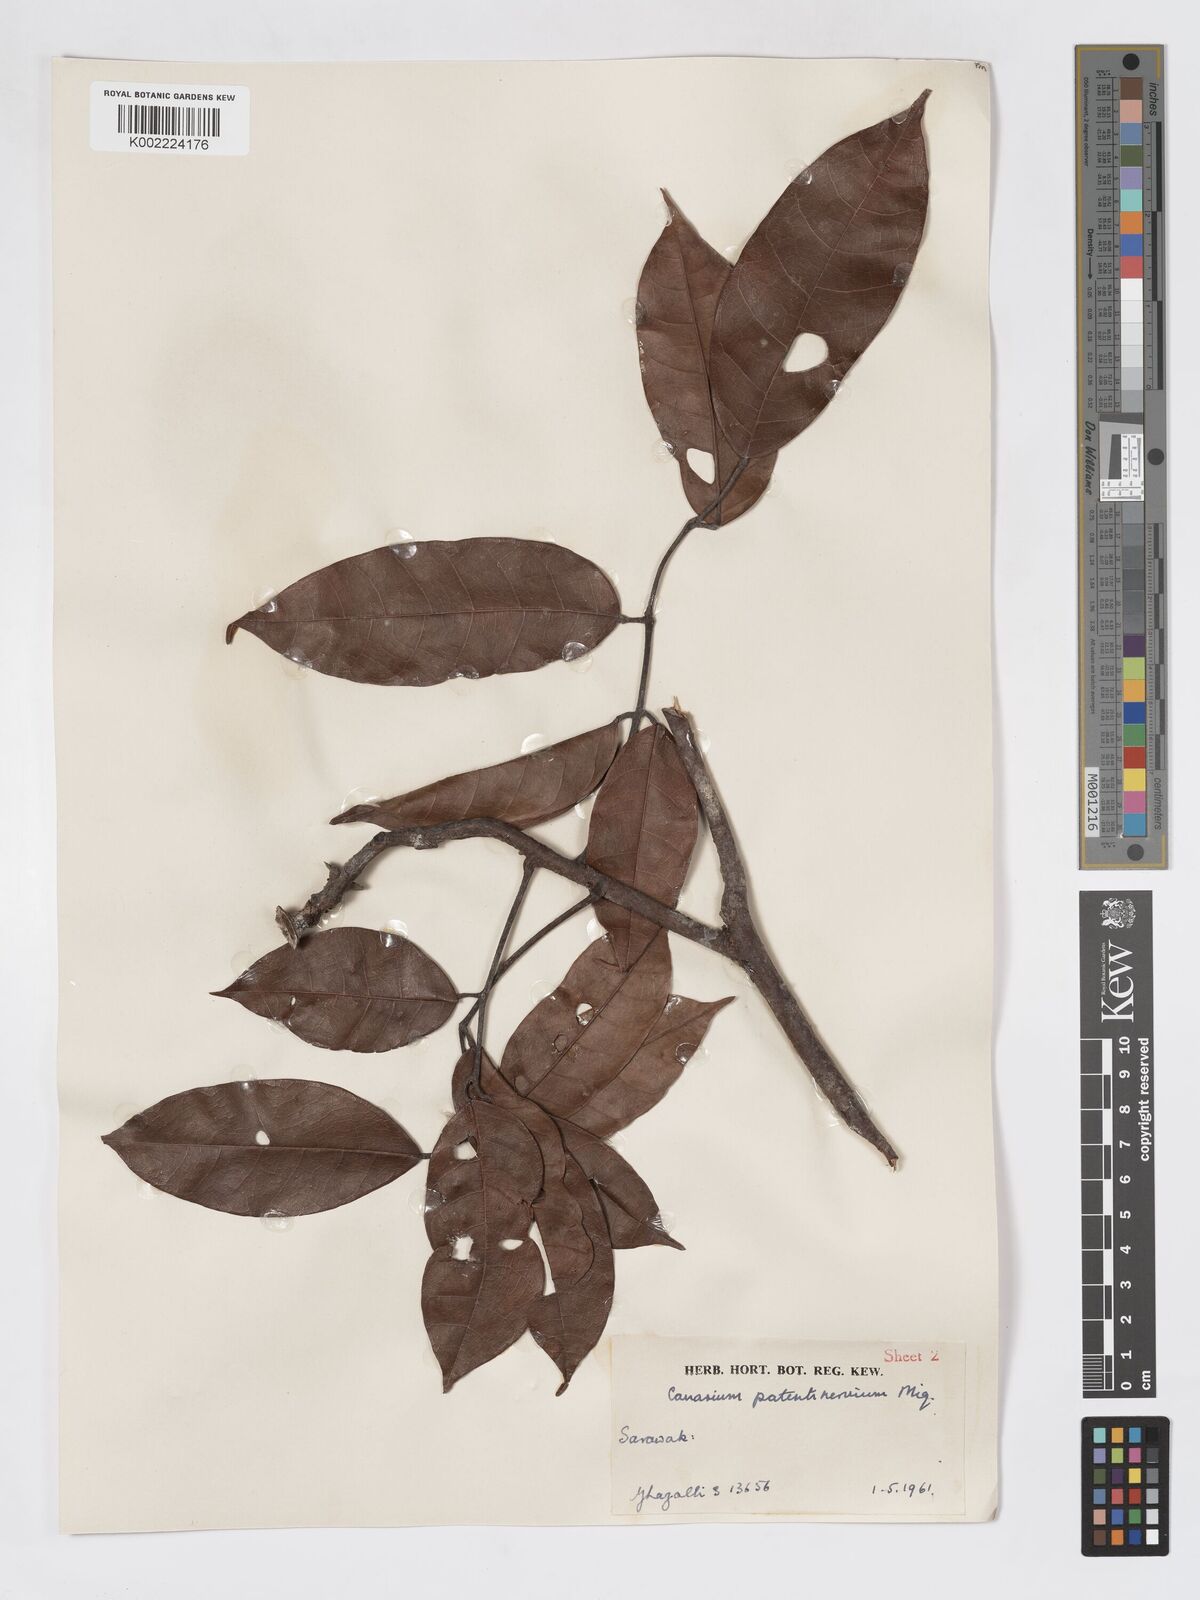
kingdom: Plantae
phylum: Tracheophyta
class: Magnoliopsida
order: Sapindales
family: Burseraceae
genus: Canarium
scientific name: Canarium patentinervium
